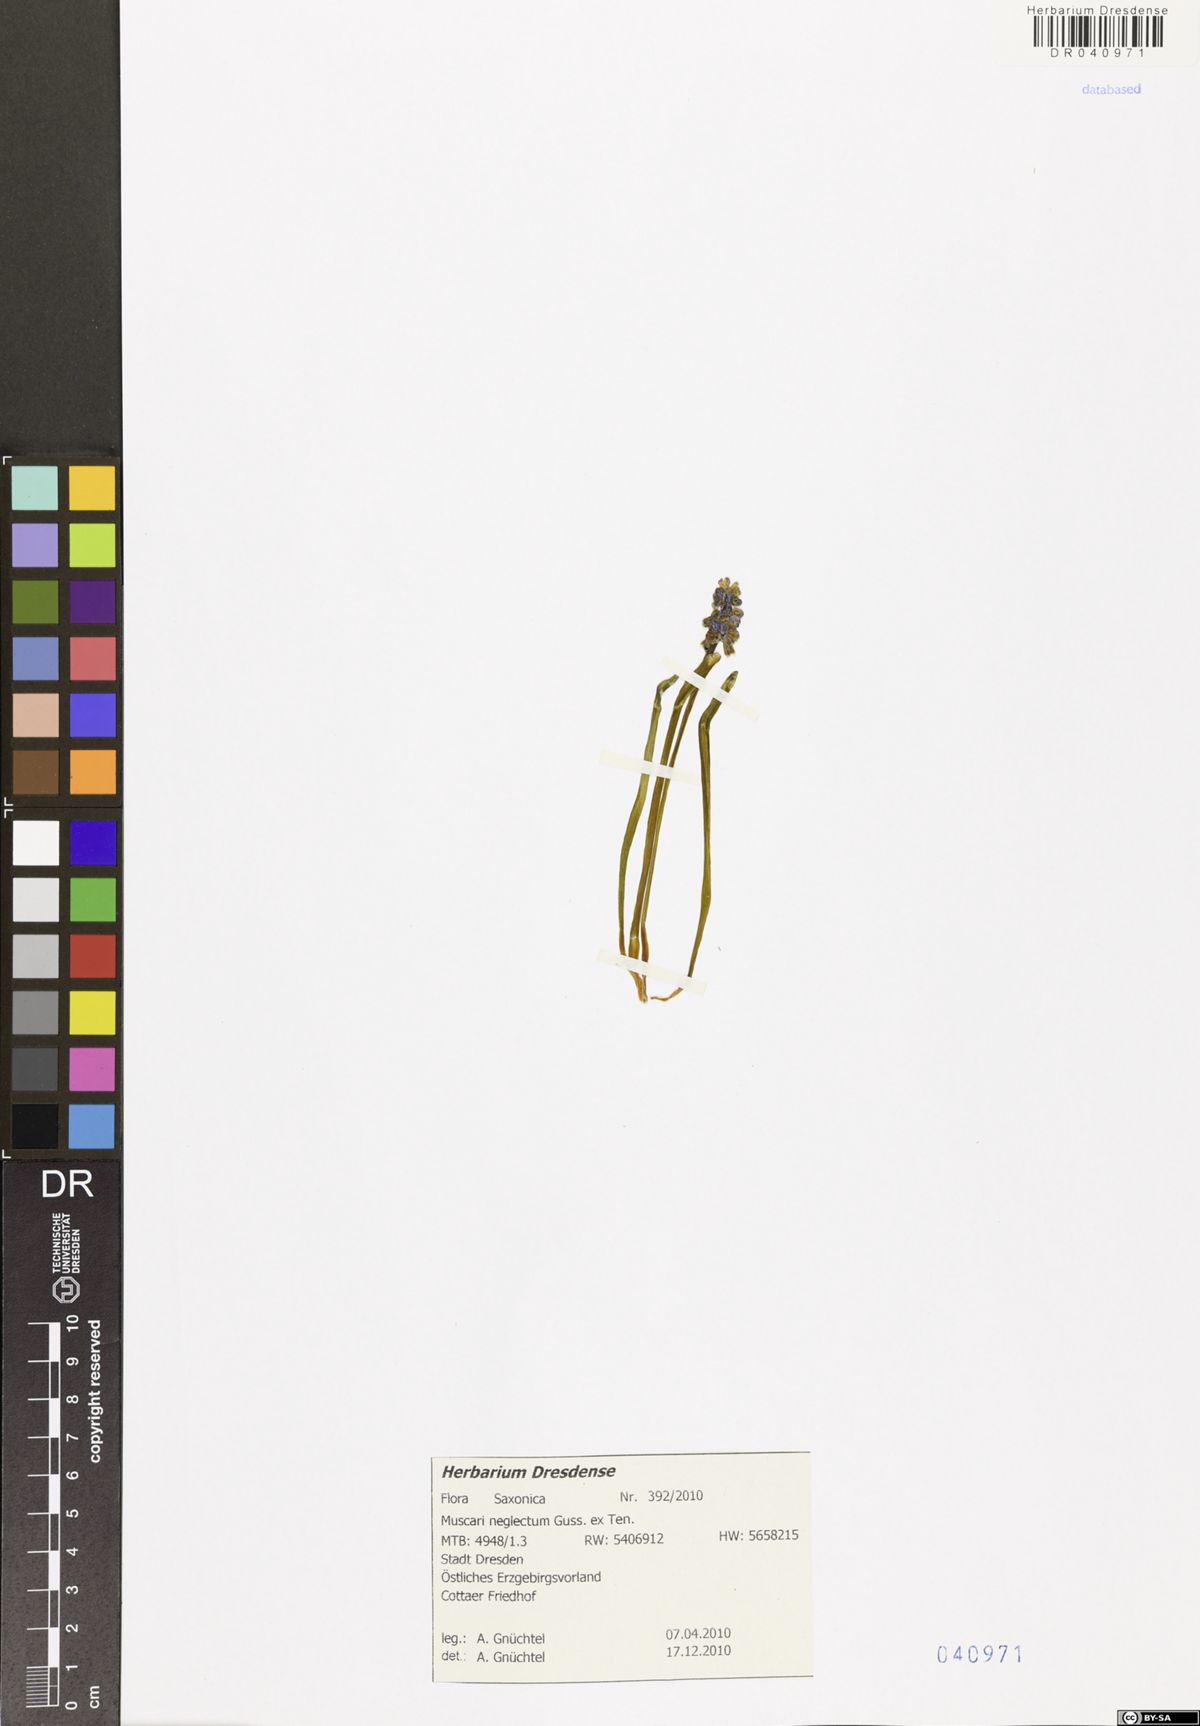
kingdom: Plantae
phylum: Tracheophyta
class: Liliopsida
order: Asparagales
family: Asparagaceae
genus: Muscari
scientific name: Muscari neglectum
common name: Grape-hyacinth
